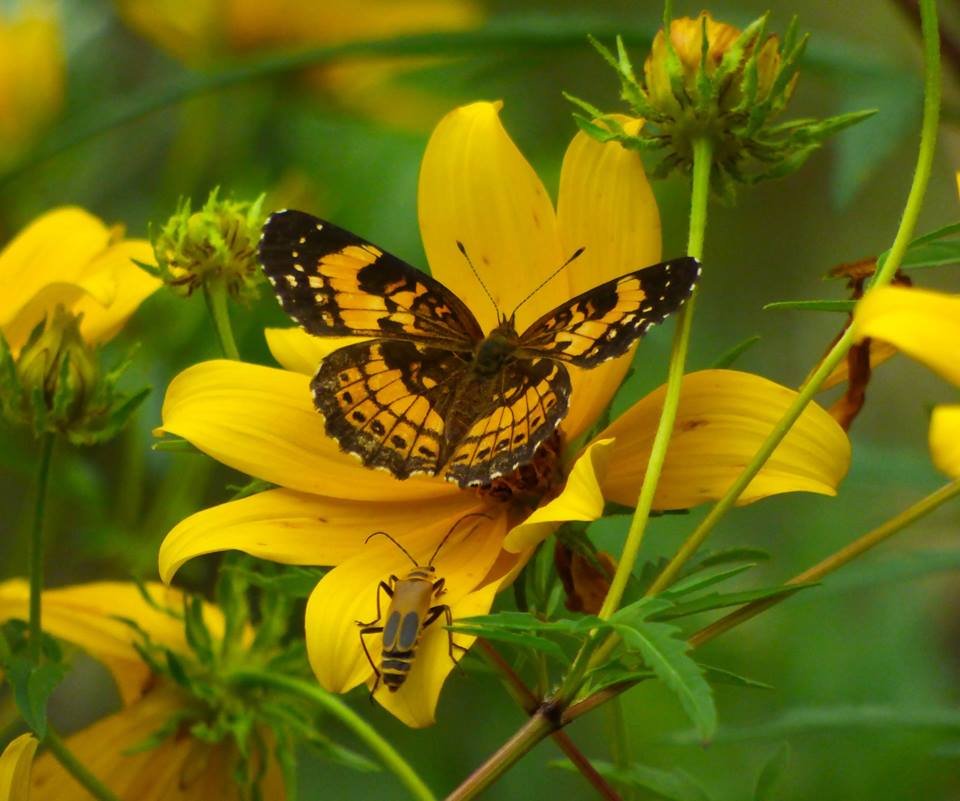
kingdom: Animalia
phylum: Arthropoda
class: Insecta
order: Lepidoptera
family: Nymphalidae
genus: Chlosyne
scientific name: Chlosyne nycteis
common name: Silvery Checkerspot
